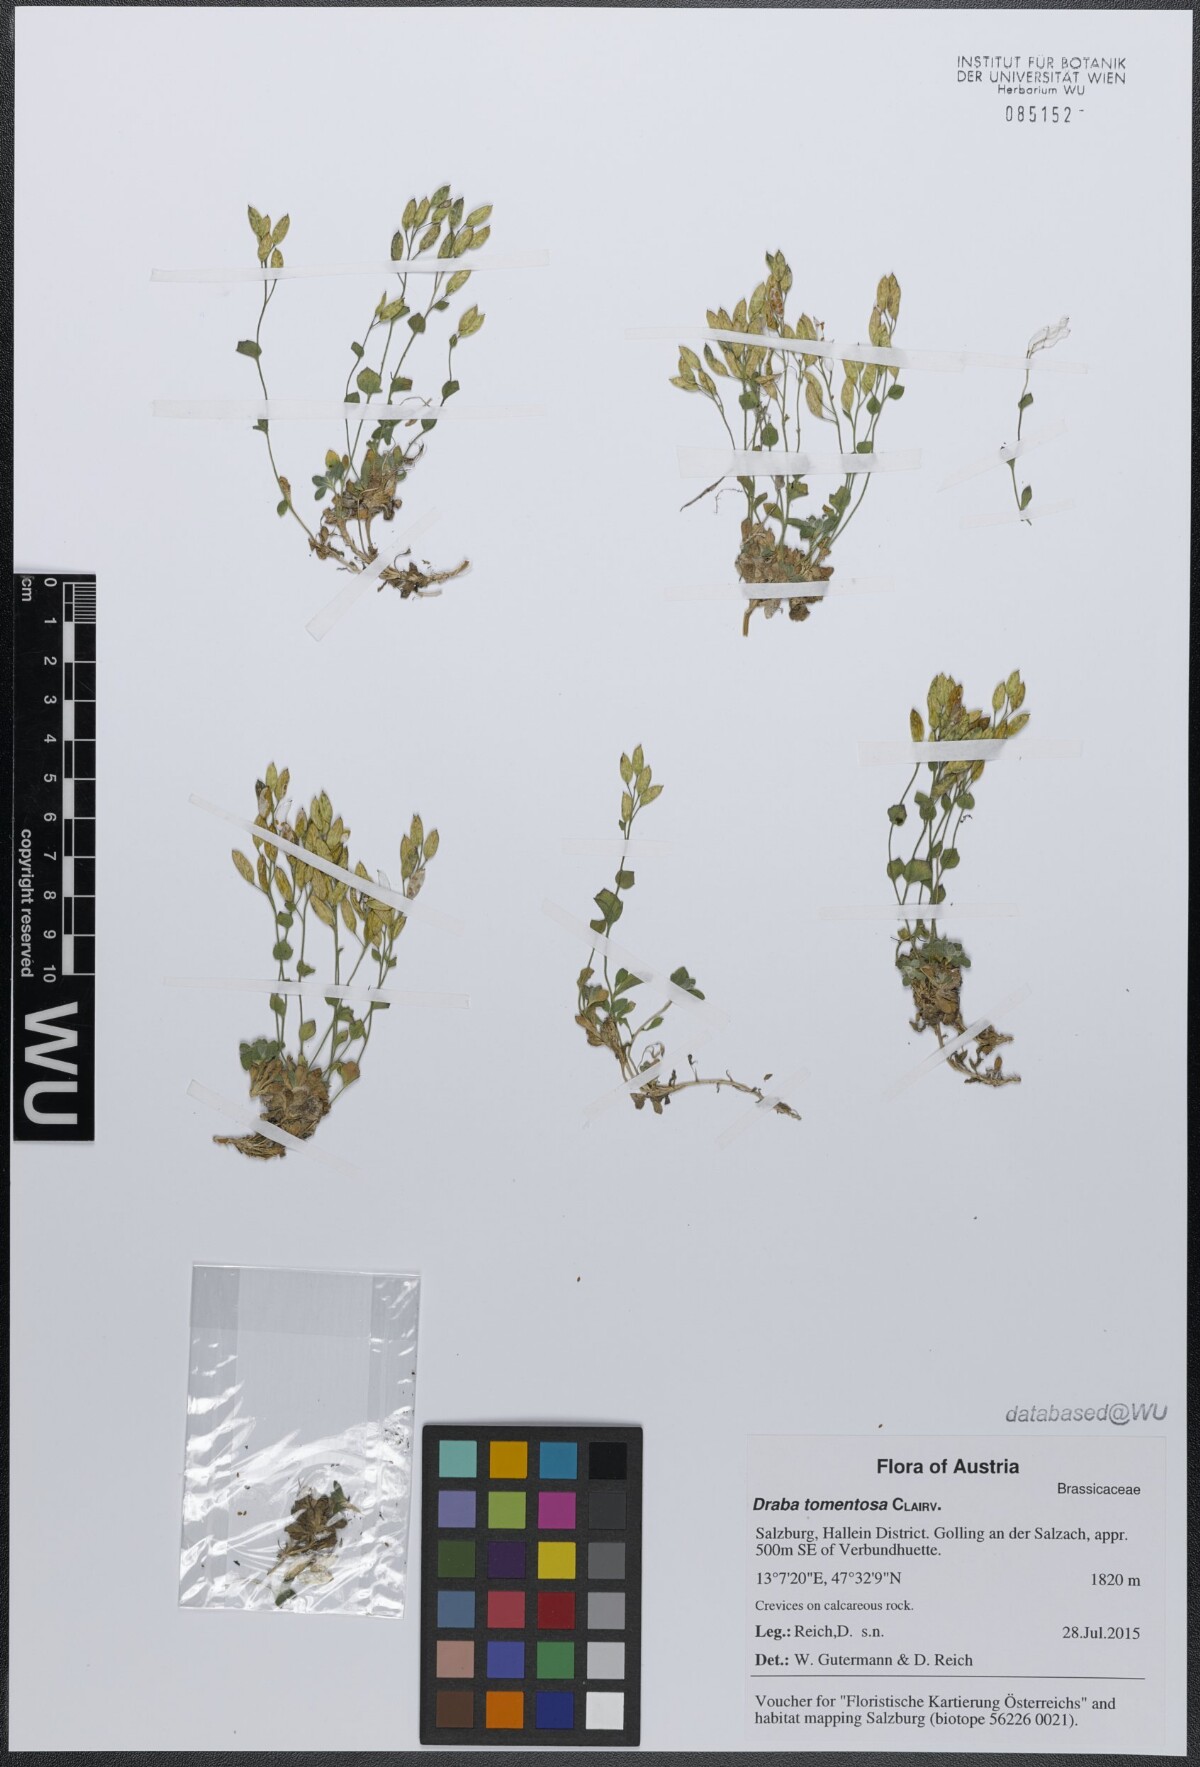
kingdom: Plantae
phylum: Tracheophyta
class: Magnoliopsida
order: Brassicales
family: Brassicaceae
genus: Draba
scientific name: Draba tomentosa
